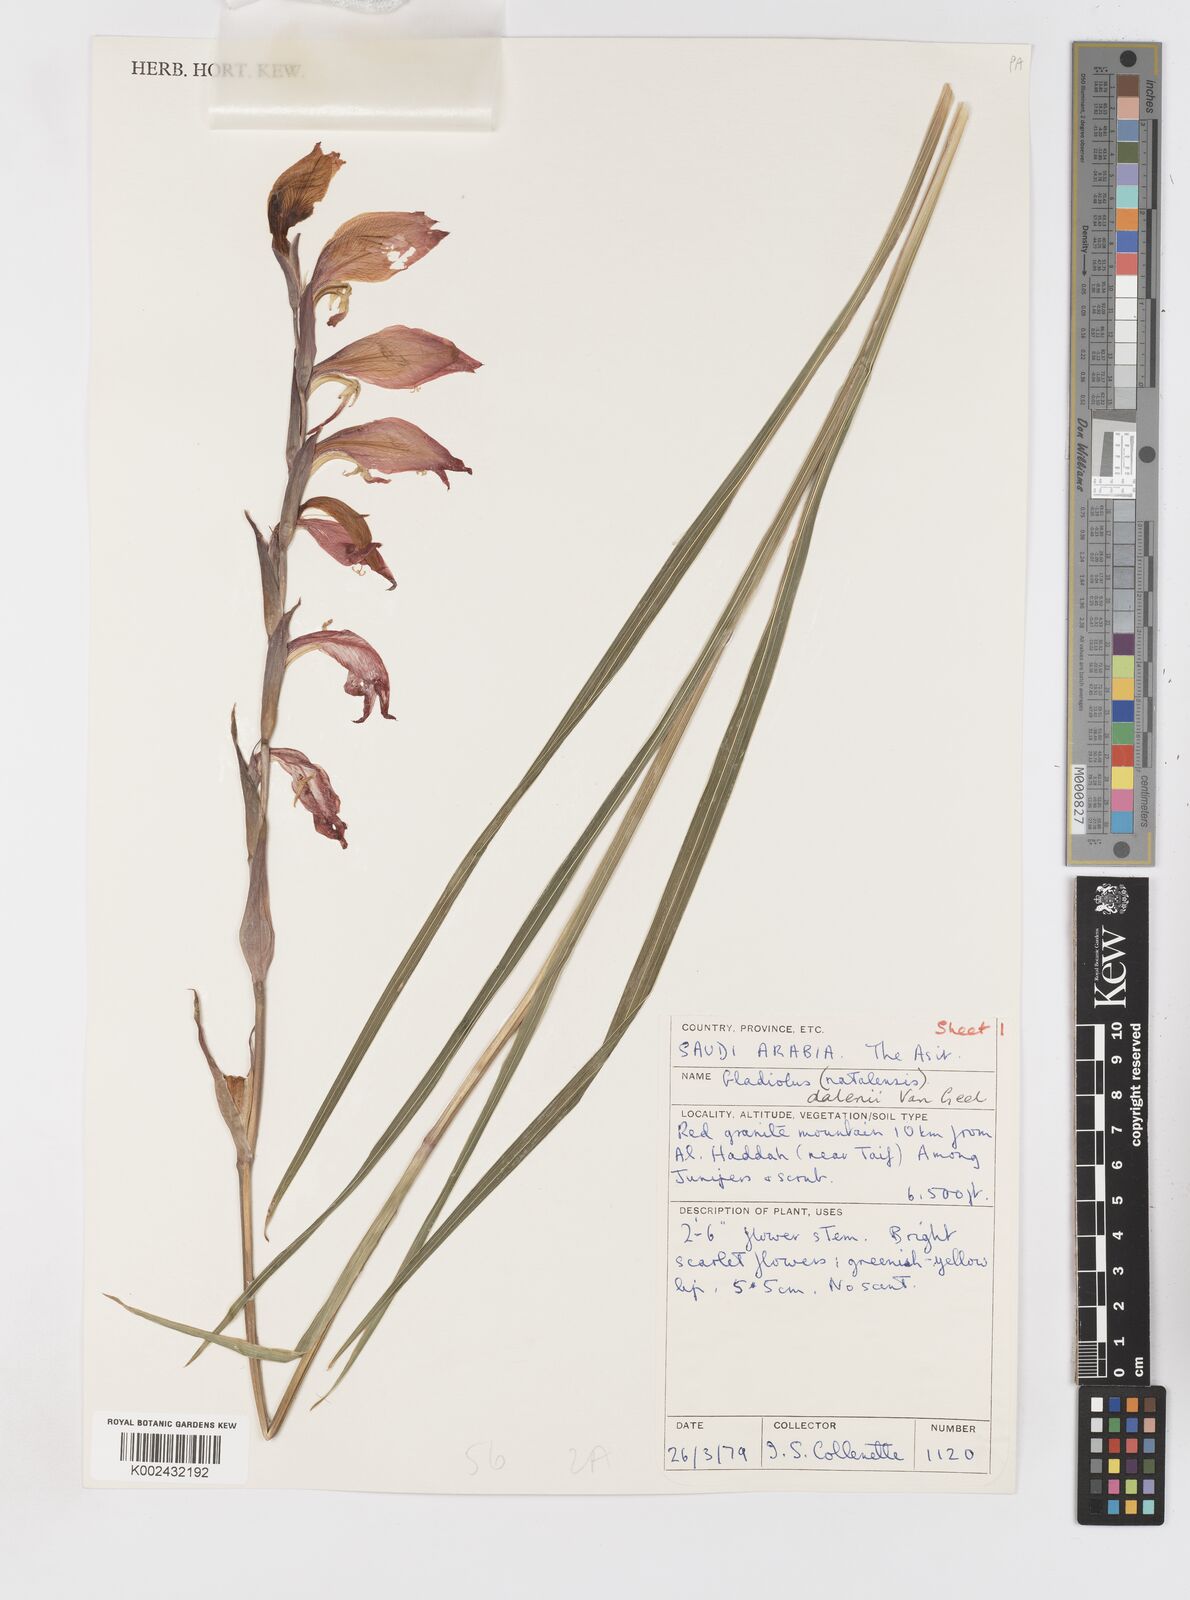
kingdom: Plantae
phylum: Tracheophyta
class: Liliopsida
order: Asparagales
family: Iridaceae
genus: Gladiolus
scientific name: Gladiolus dalenii
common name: Cornflag
